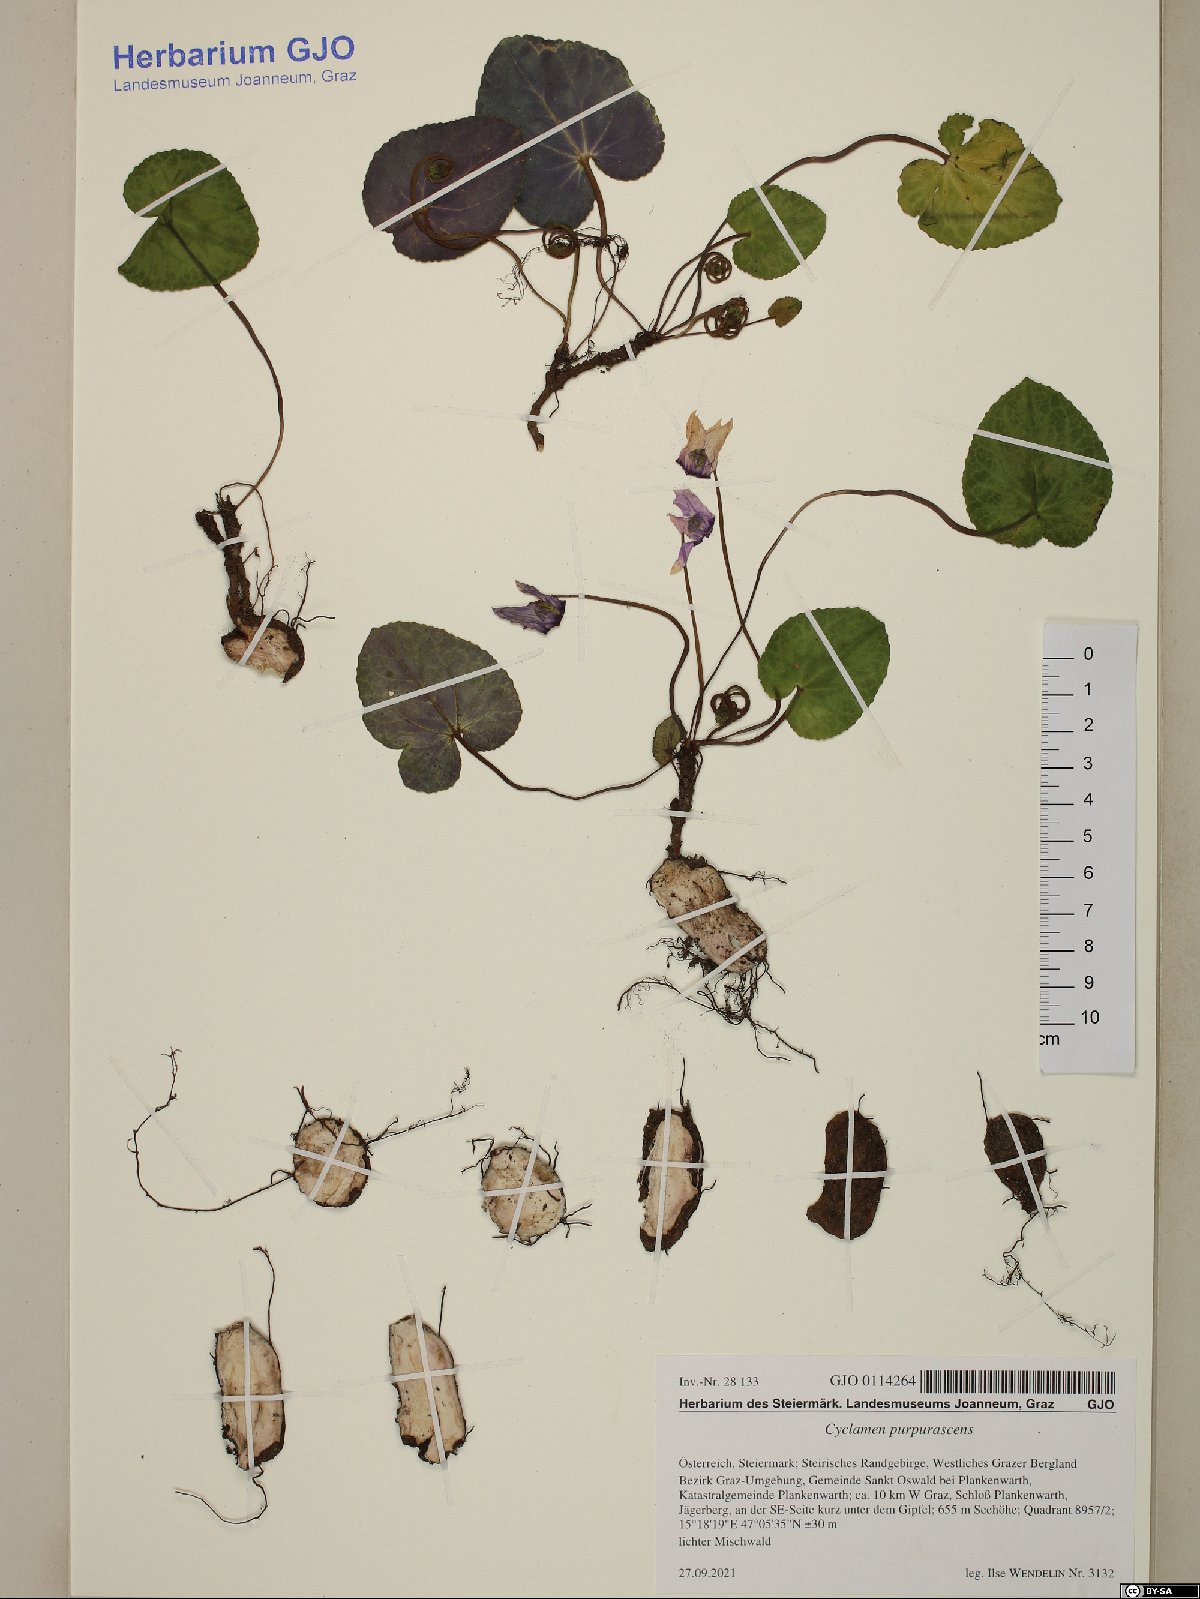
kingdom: Plantae
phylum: Tracheophyta
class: Magnoliopsida
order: Ericales
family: Primulaceae
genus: Cyclamen
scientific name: Cyclamen purpurascens
